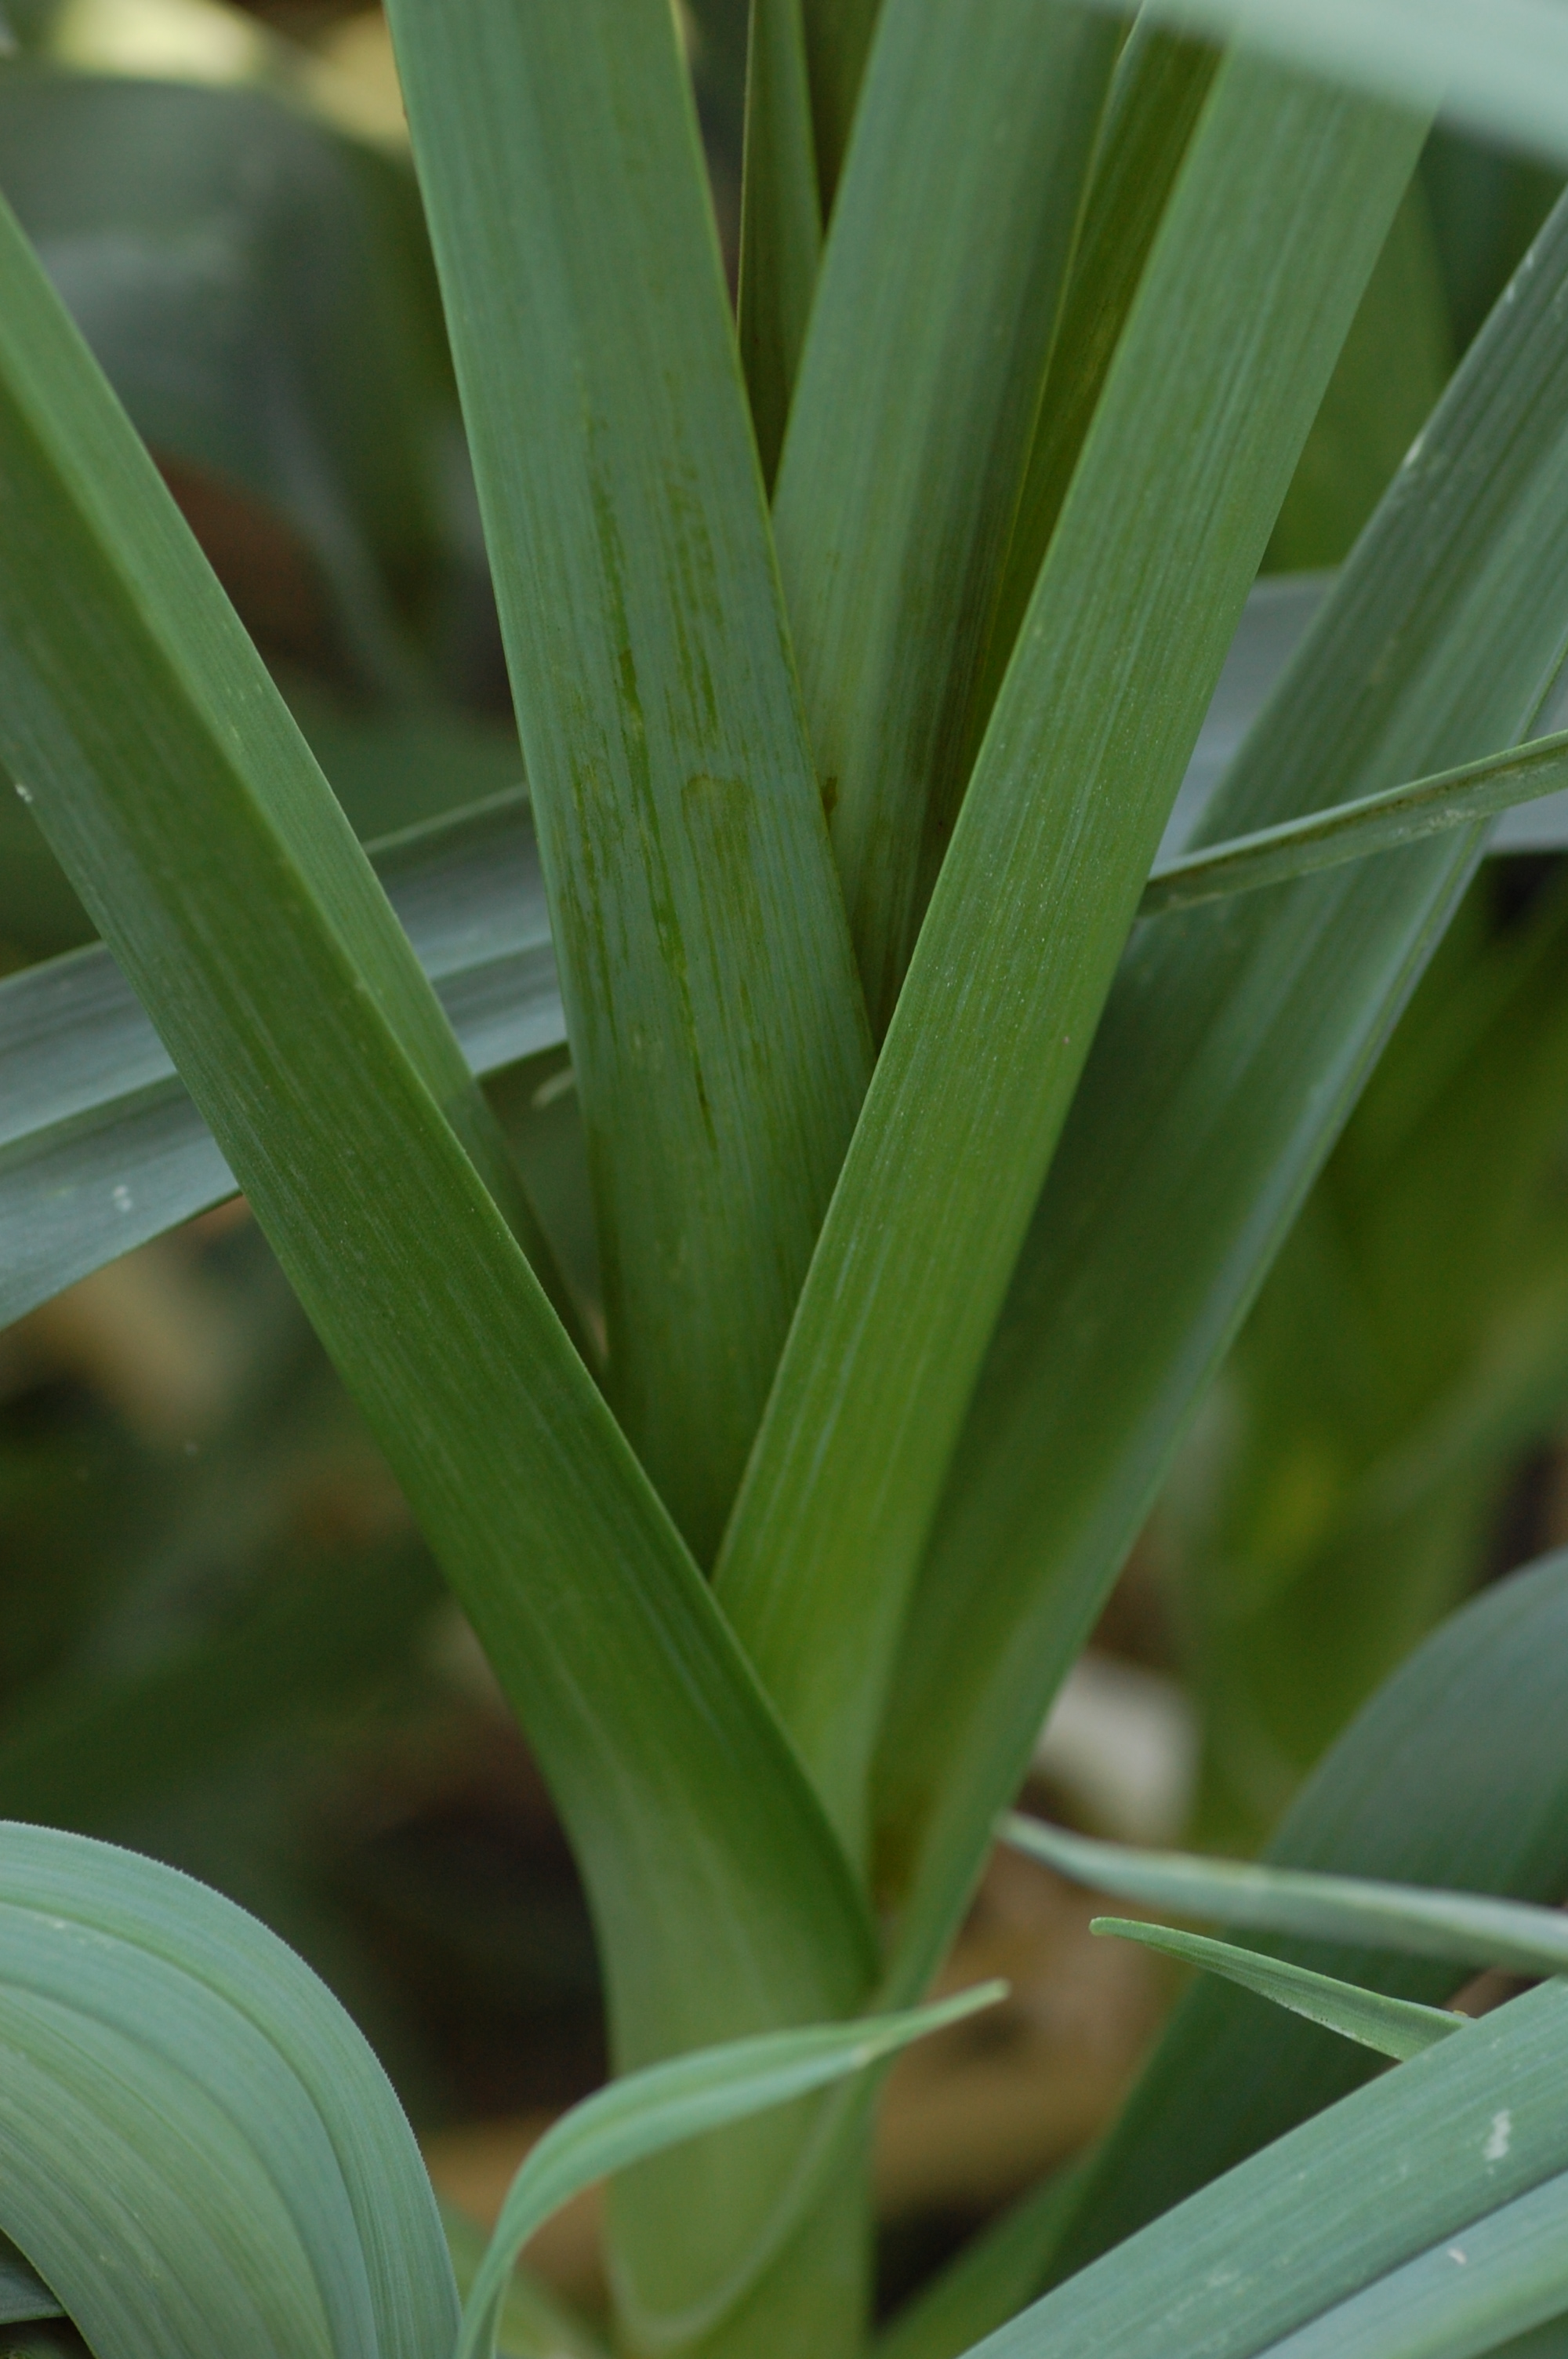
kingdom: Plantae
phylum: Tracheophyta
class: Liliopsida
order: Asparagales
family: Amaryllidaceae
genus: Allium
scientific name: Allium ampeloprasum
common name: Wild leek
